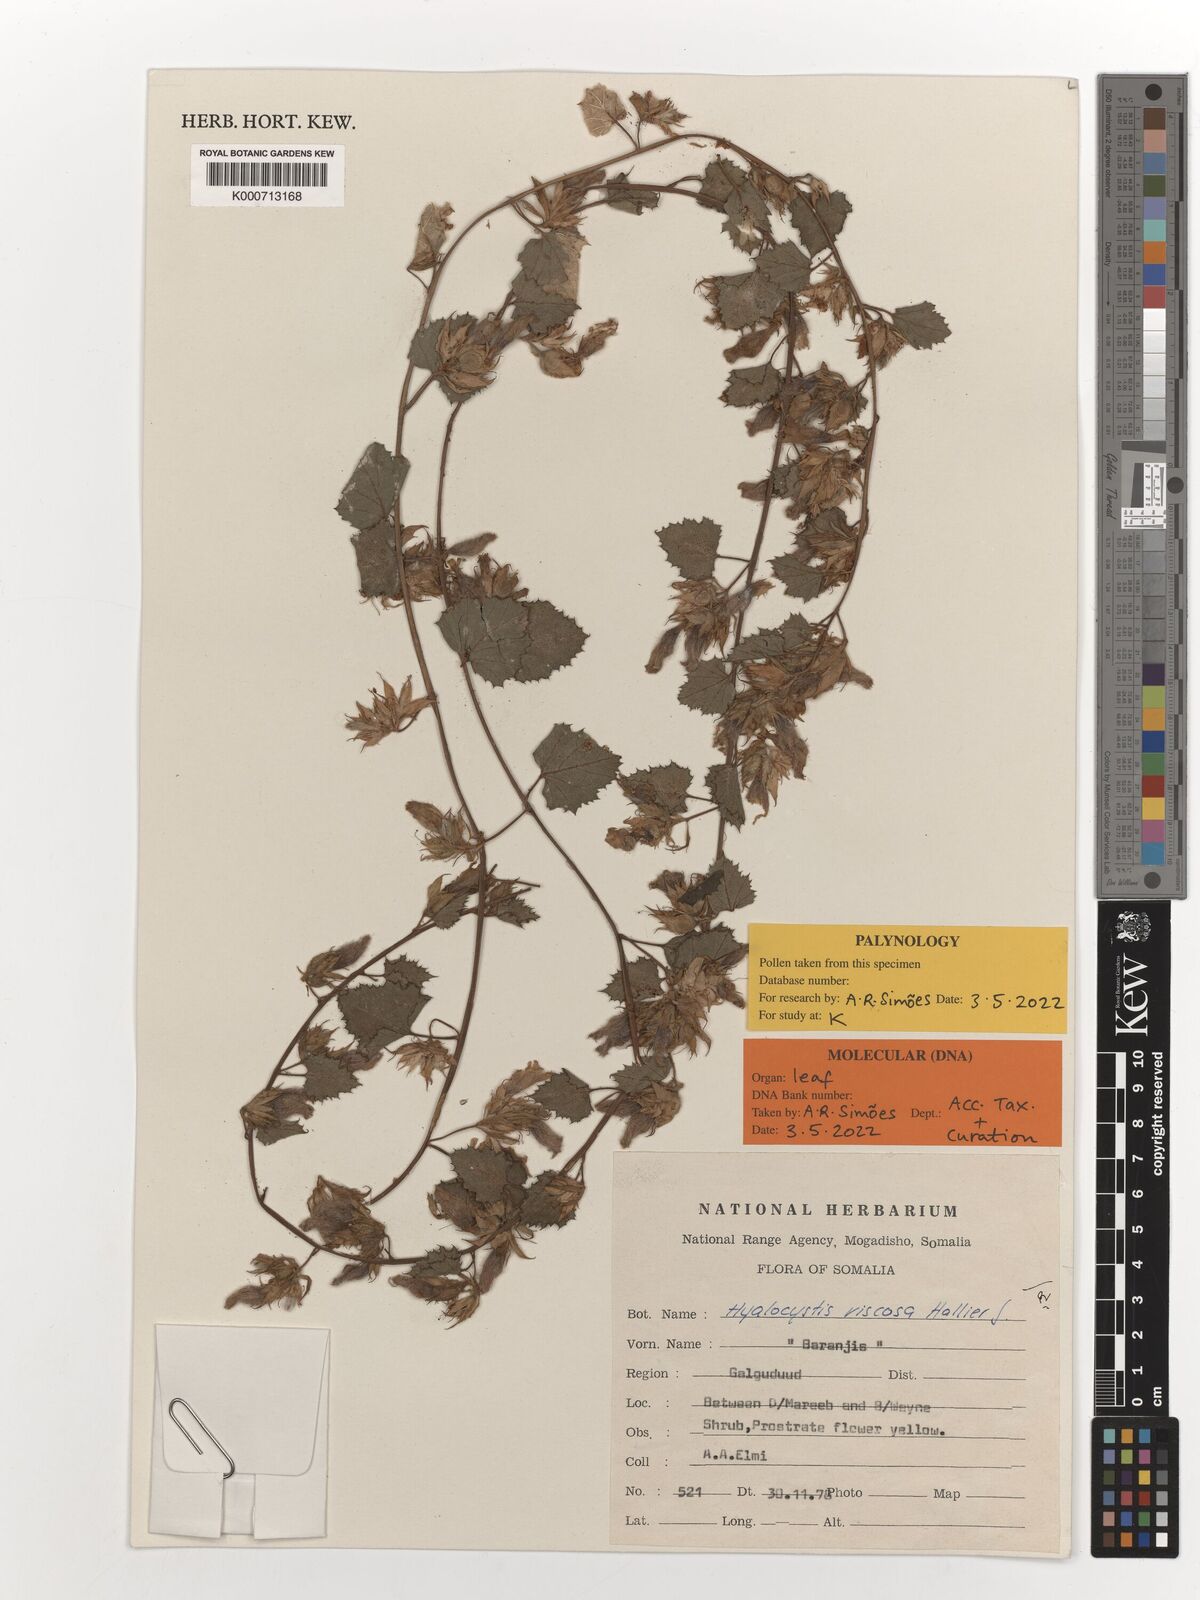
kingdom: Plantae
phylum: Tracheophyta
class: Magnoliopsida
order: Solanales
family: Convolvulaceae
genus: Hyalocystis
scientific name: Hyalocystis viscosa
